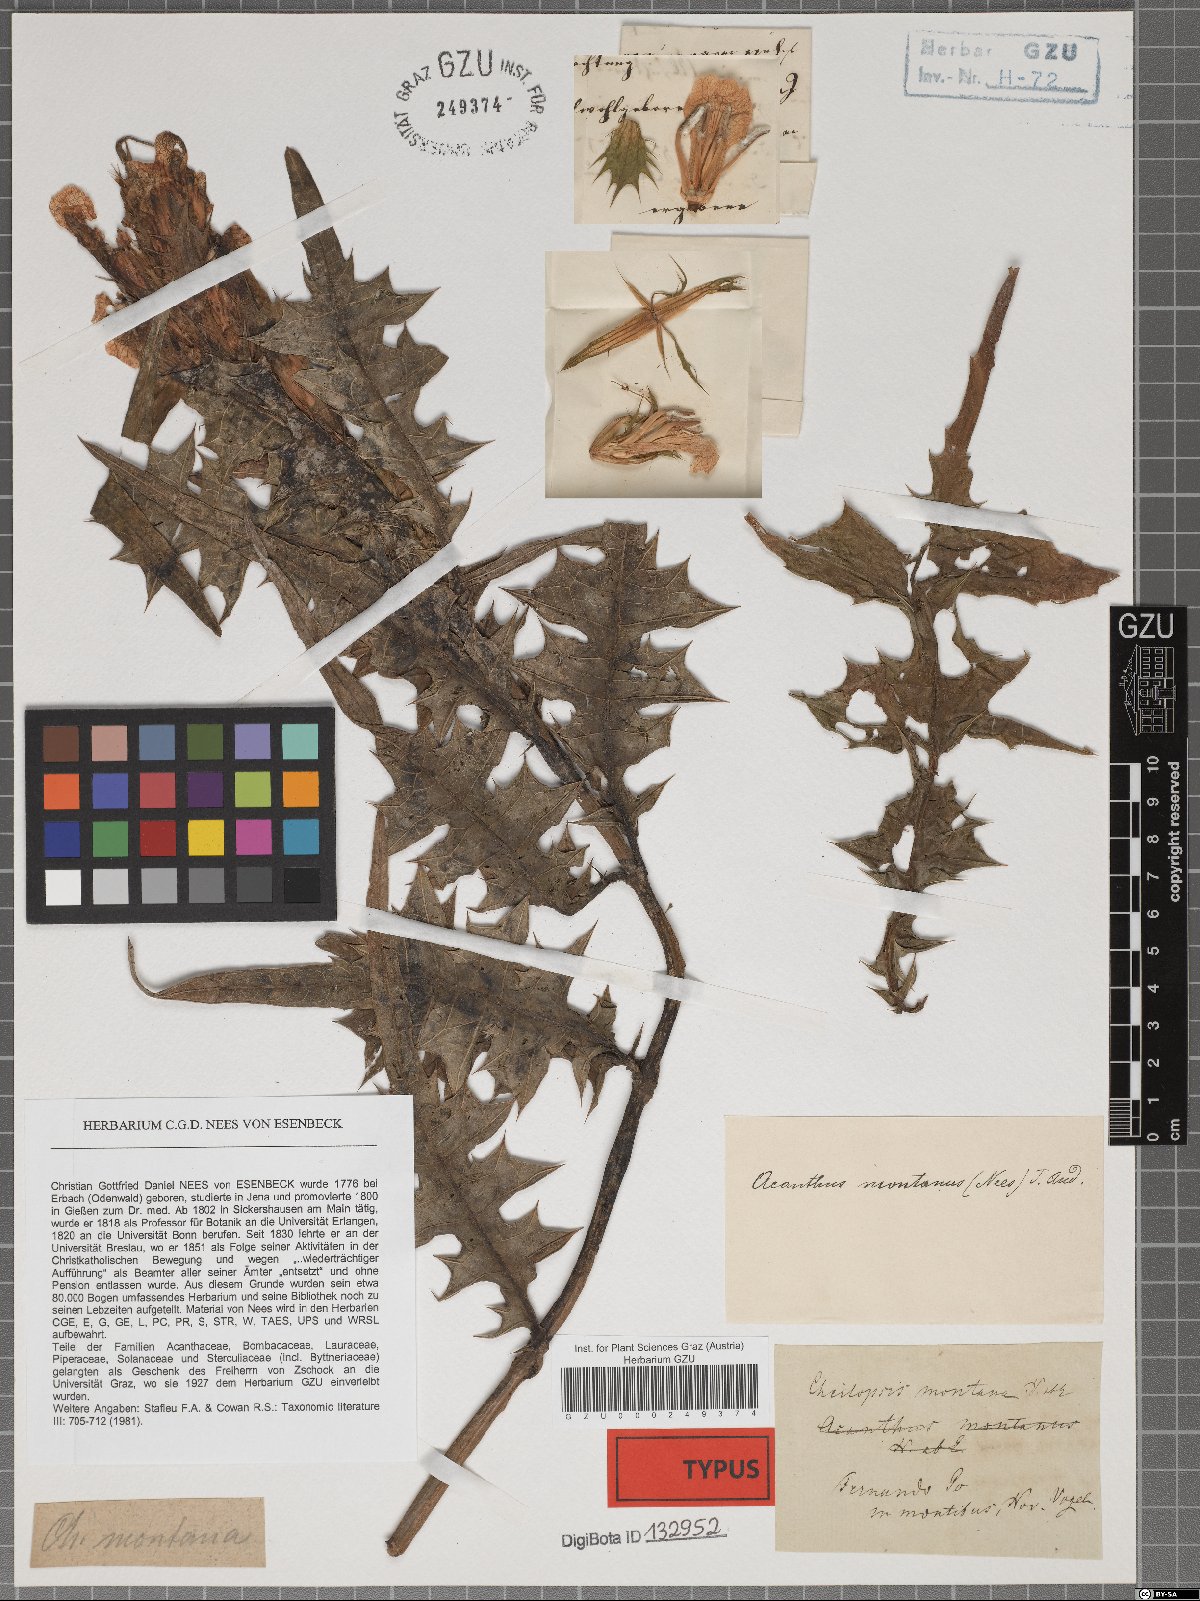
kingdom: Plantae
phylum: Tracheophyta
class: Magnoliopsida
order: Lamiales
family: Acanthaceae
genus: Acanthus
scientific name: Acanthus montanus
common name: Mountain thistle
